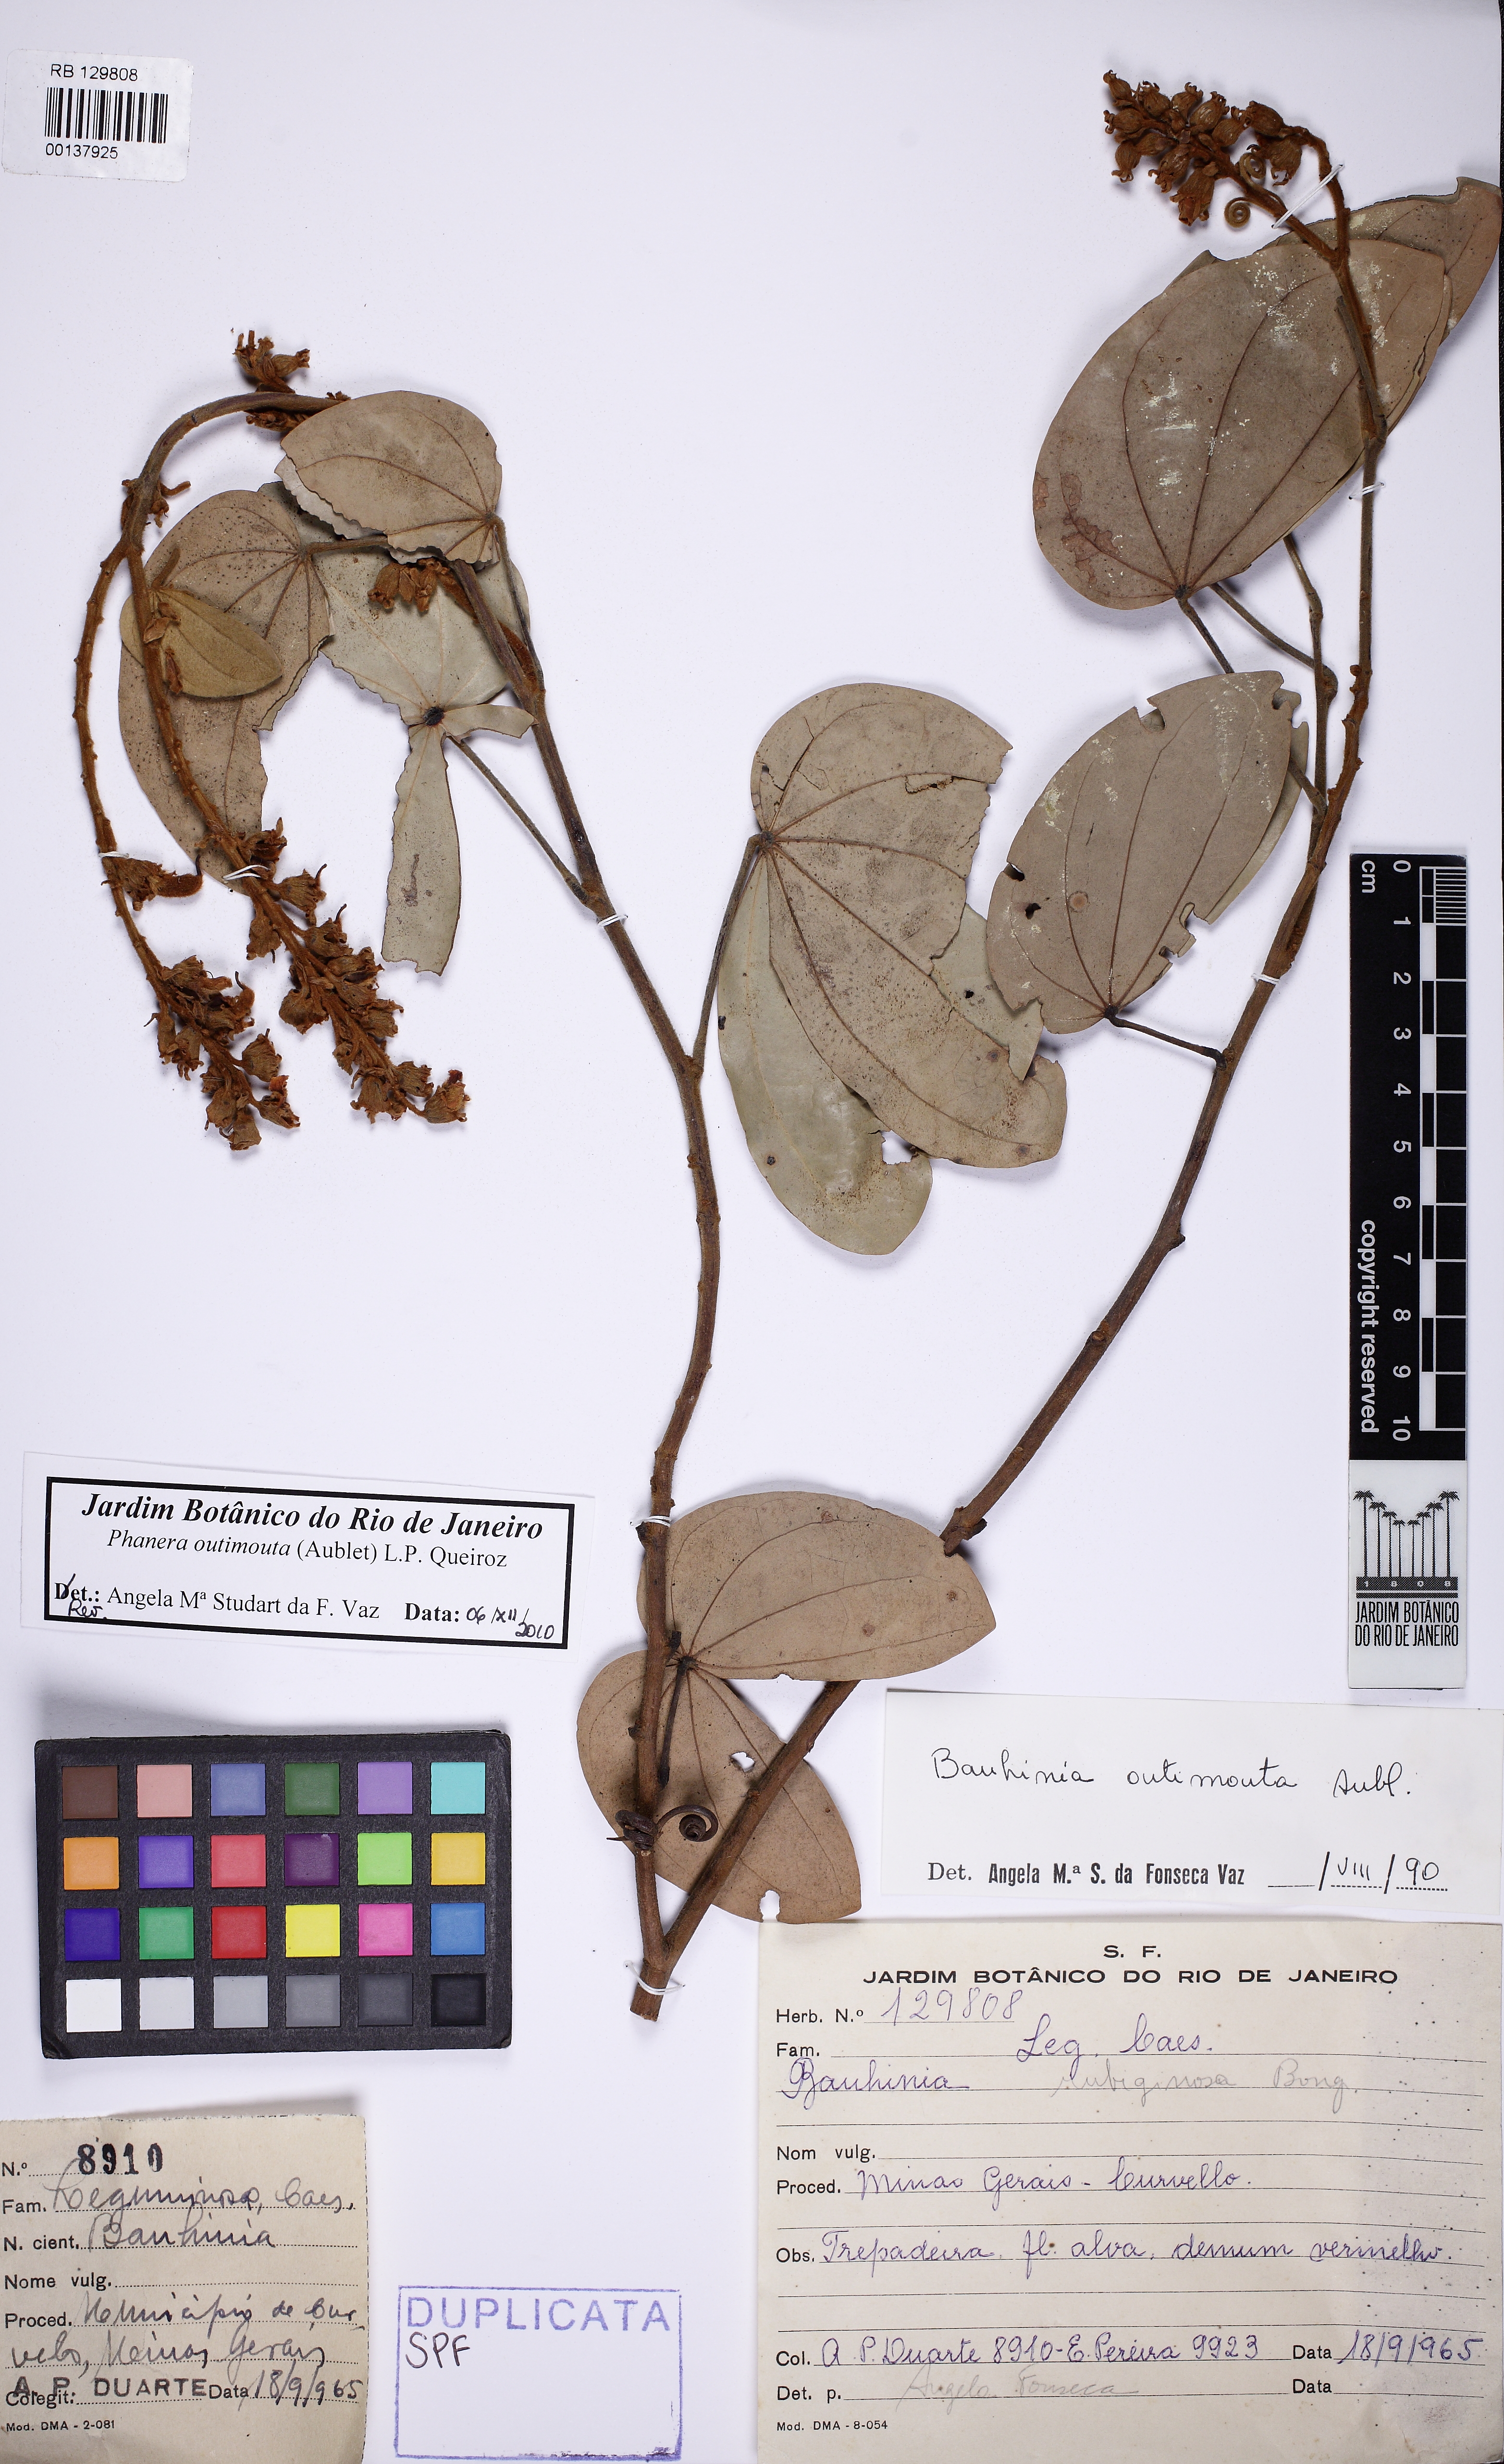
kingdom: Plantae
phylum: Tracheophyta
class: Magnoliopsida
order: Fabales
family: Fabaceae
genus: Schnella
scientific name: Schnella outimouta
